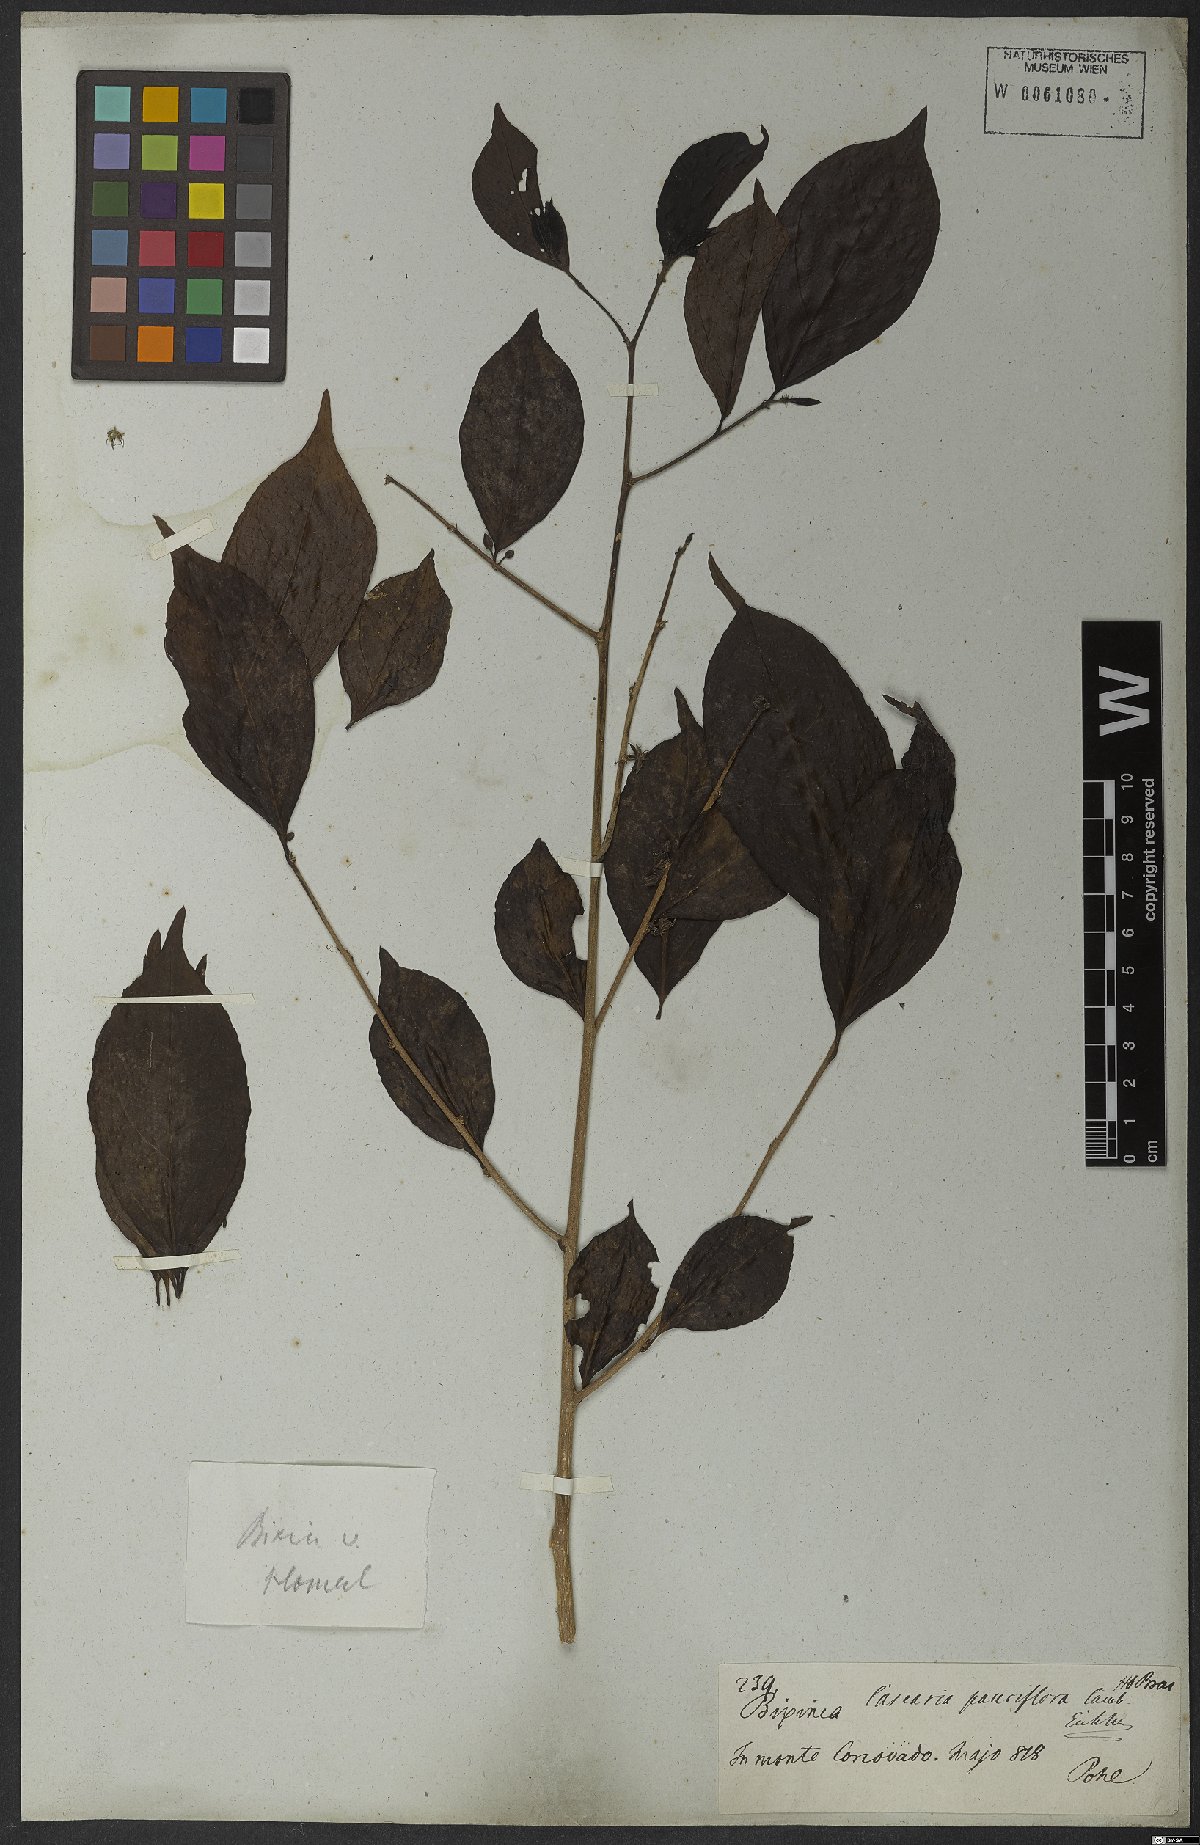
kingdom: Plantae
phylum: Tracheophyta
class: Magnoliopsida
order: Malpighiales
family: Salicaceae
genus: Casearia
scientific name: Casearia pauciflora
